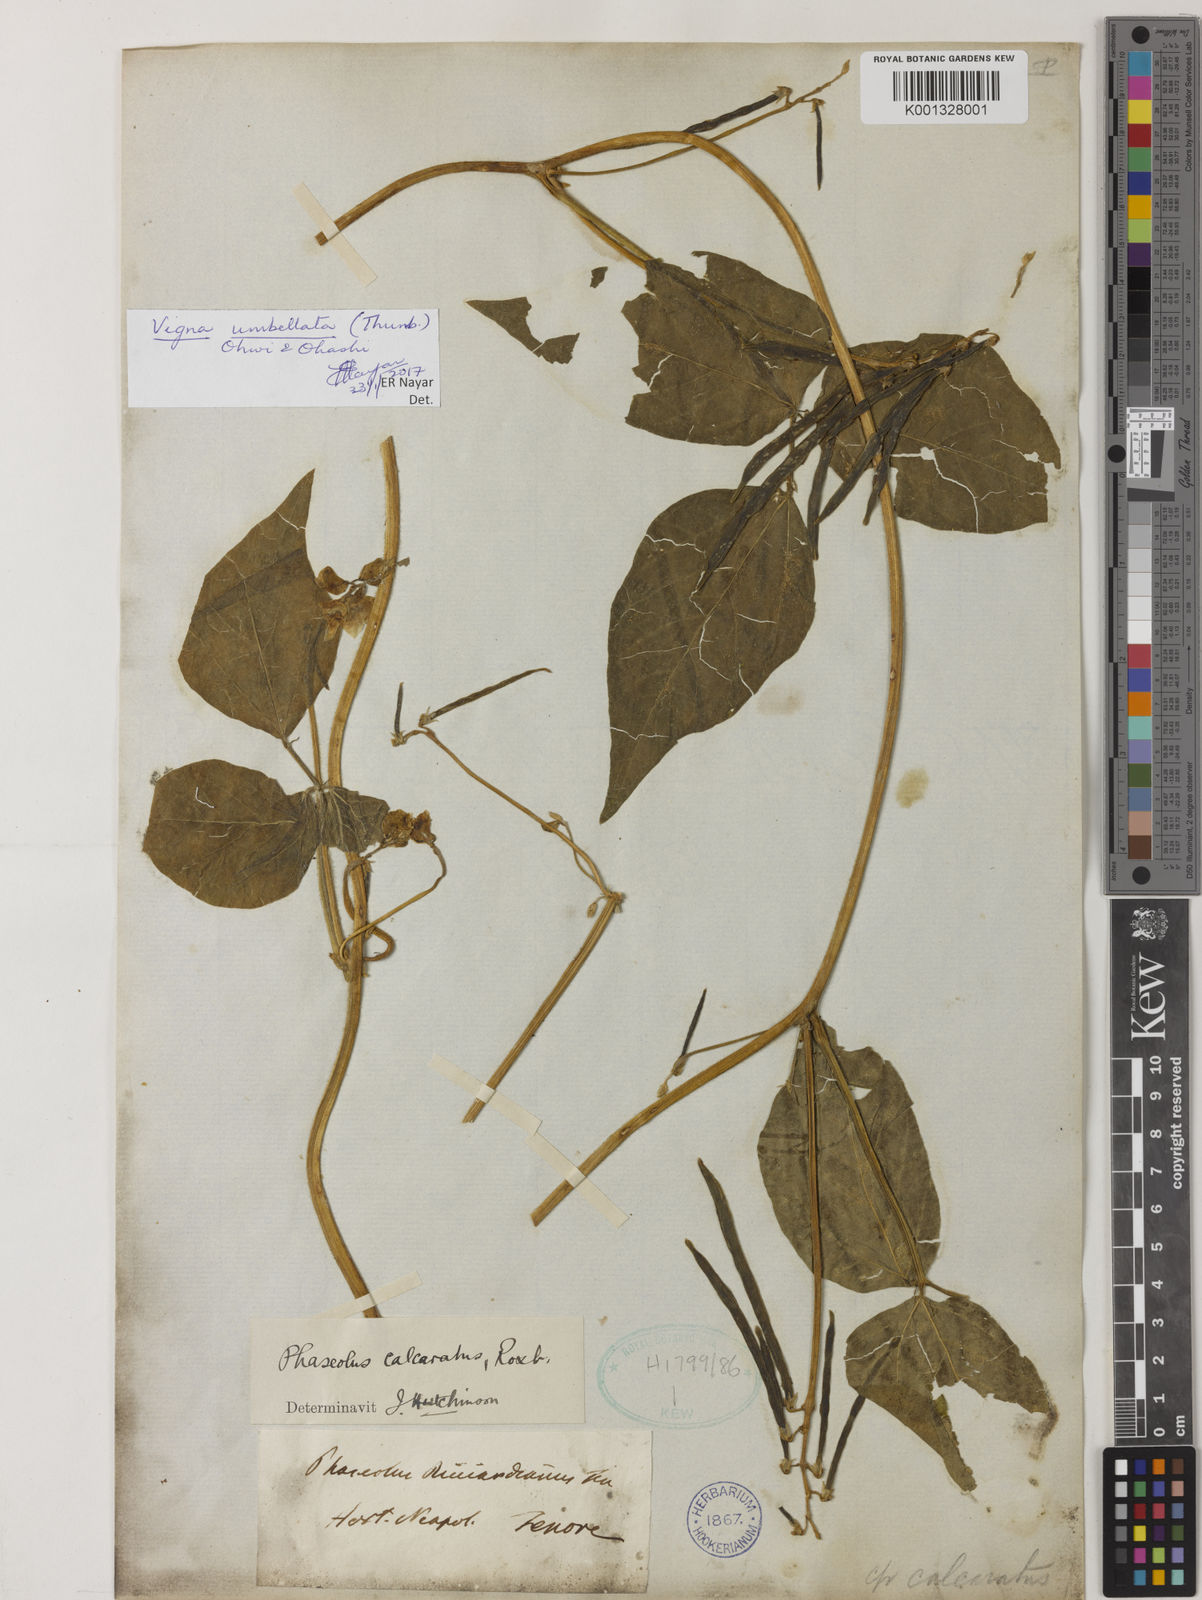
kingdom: Plantae
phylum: Tracheophyta
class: Magnoliopsida
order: Fabales
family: Fabaceae
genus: Vigna
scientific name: Vigna umbellata
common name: Oriental-bean
